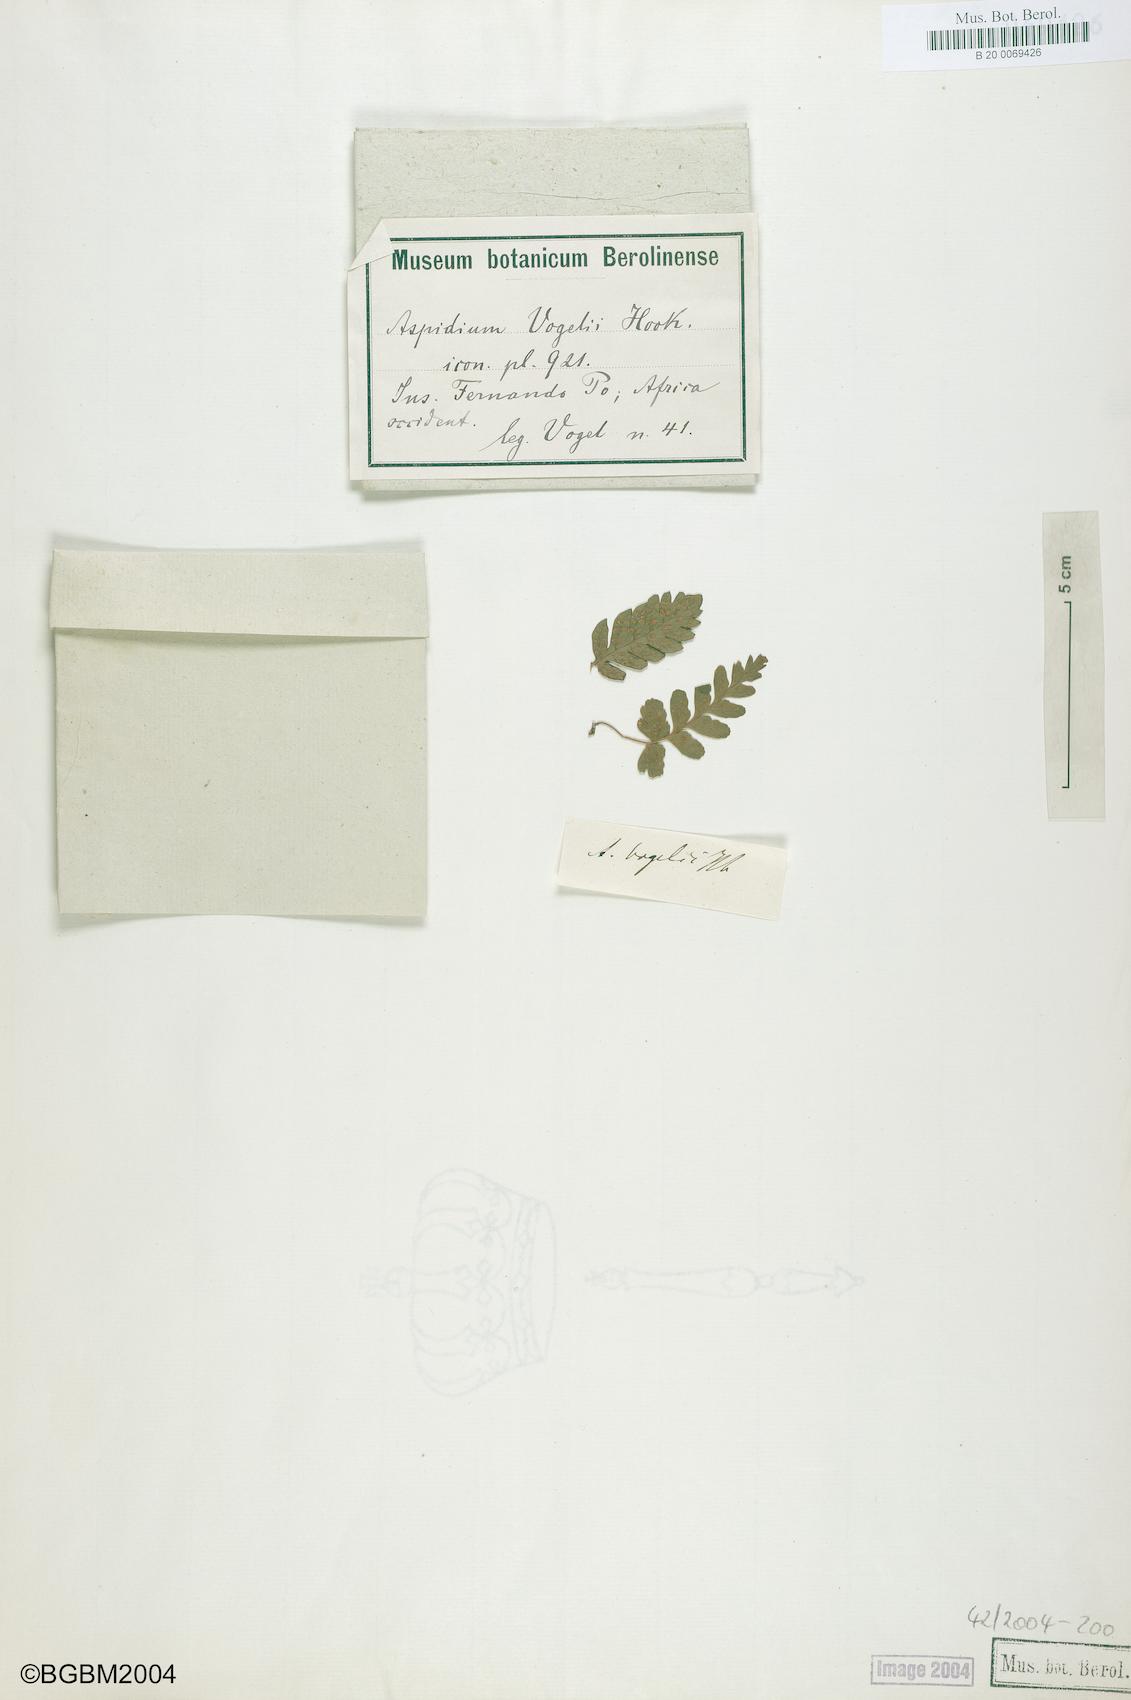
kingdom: Plantae
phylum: Tracheophyta
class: Polypodiopsida
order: Polypodiales
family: Tectariaceae
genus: Triplophyllum
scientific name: Triplophyllum vogelii
